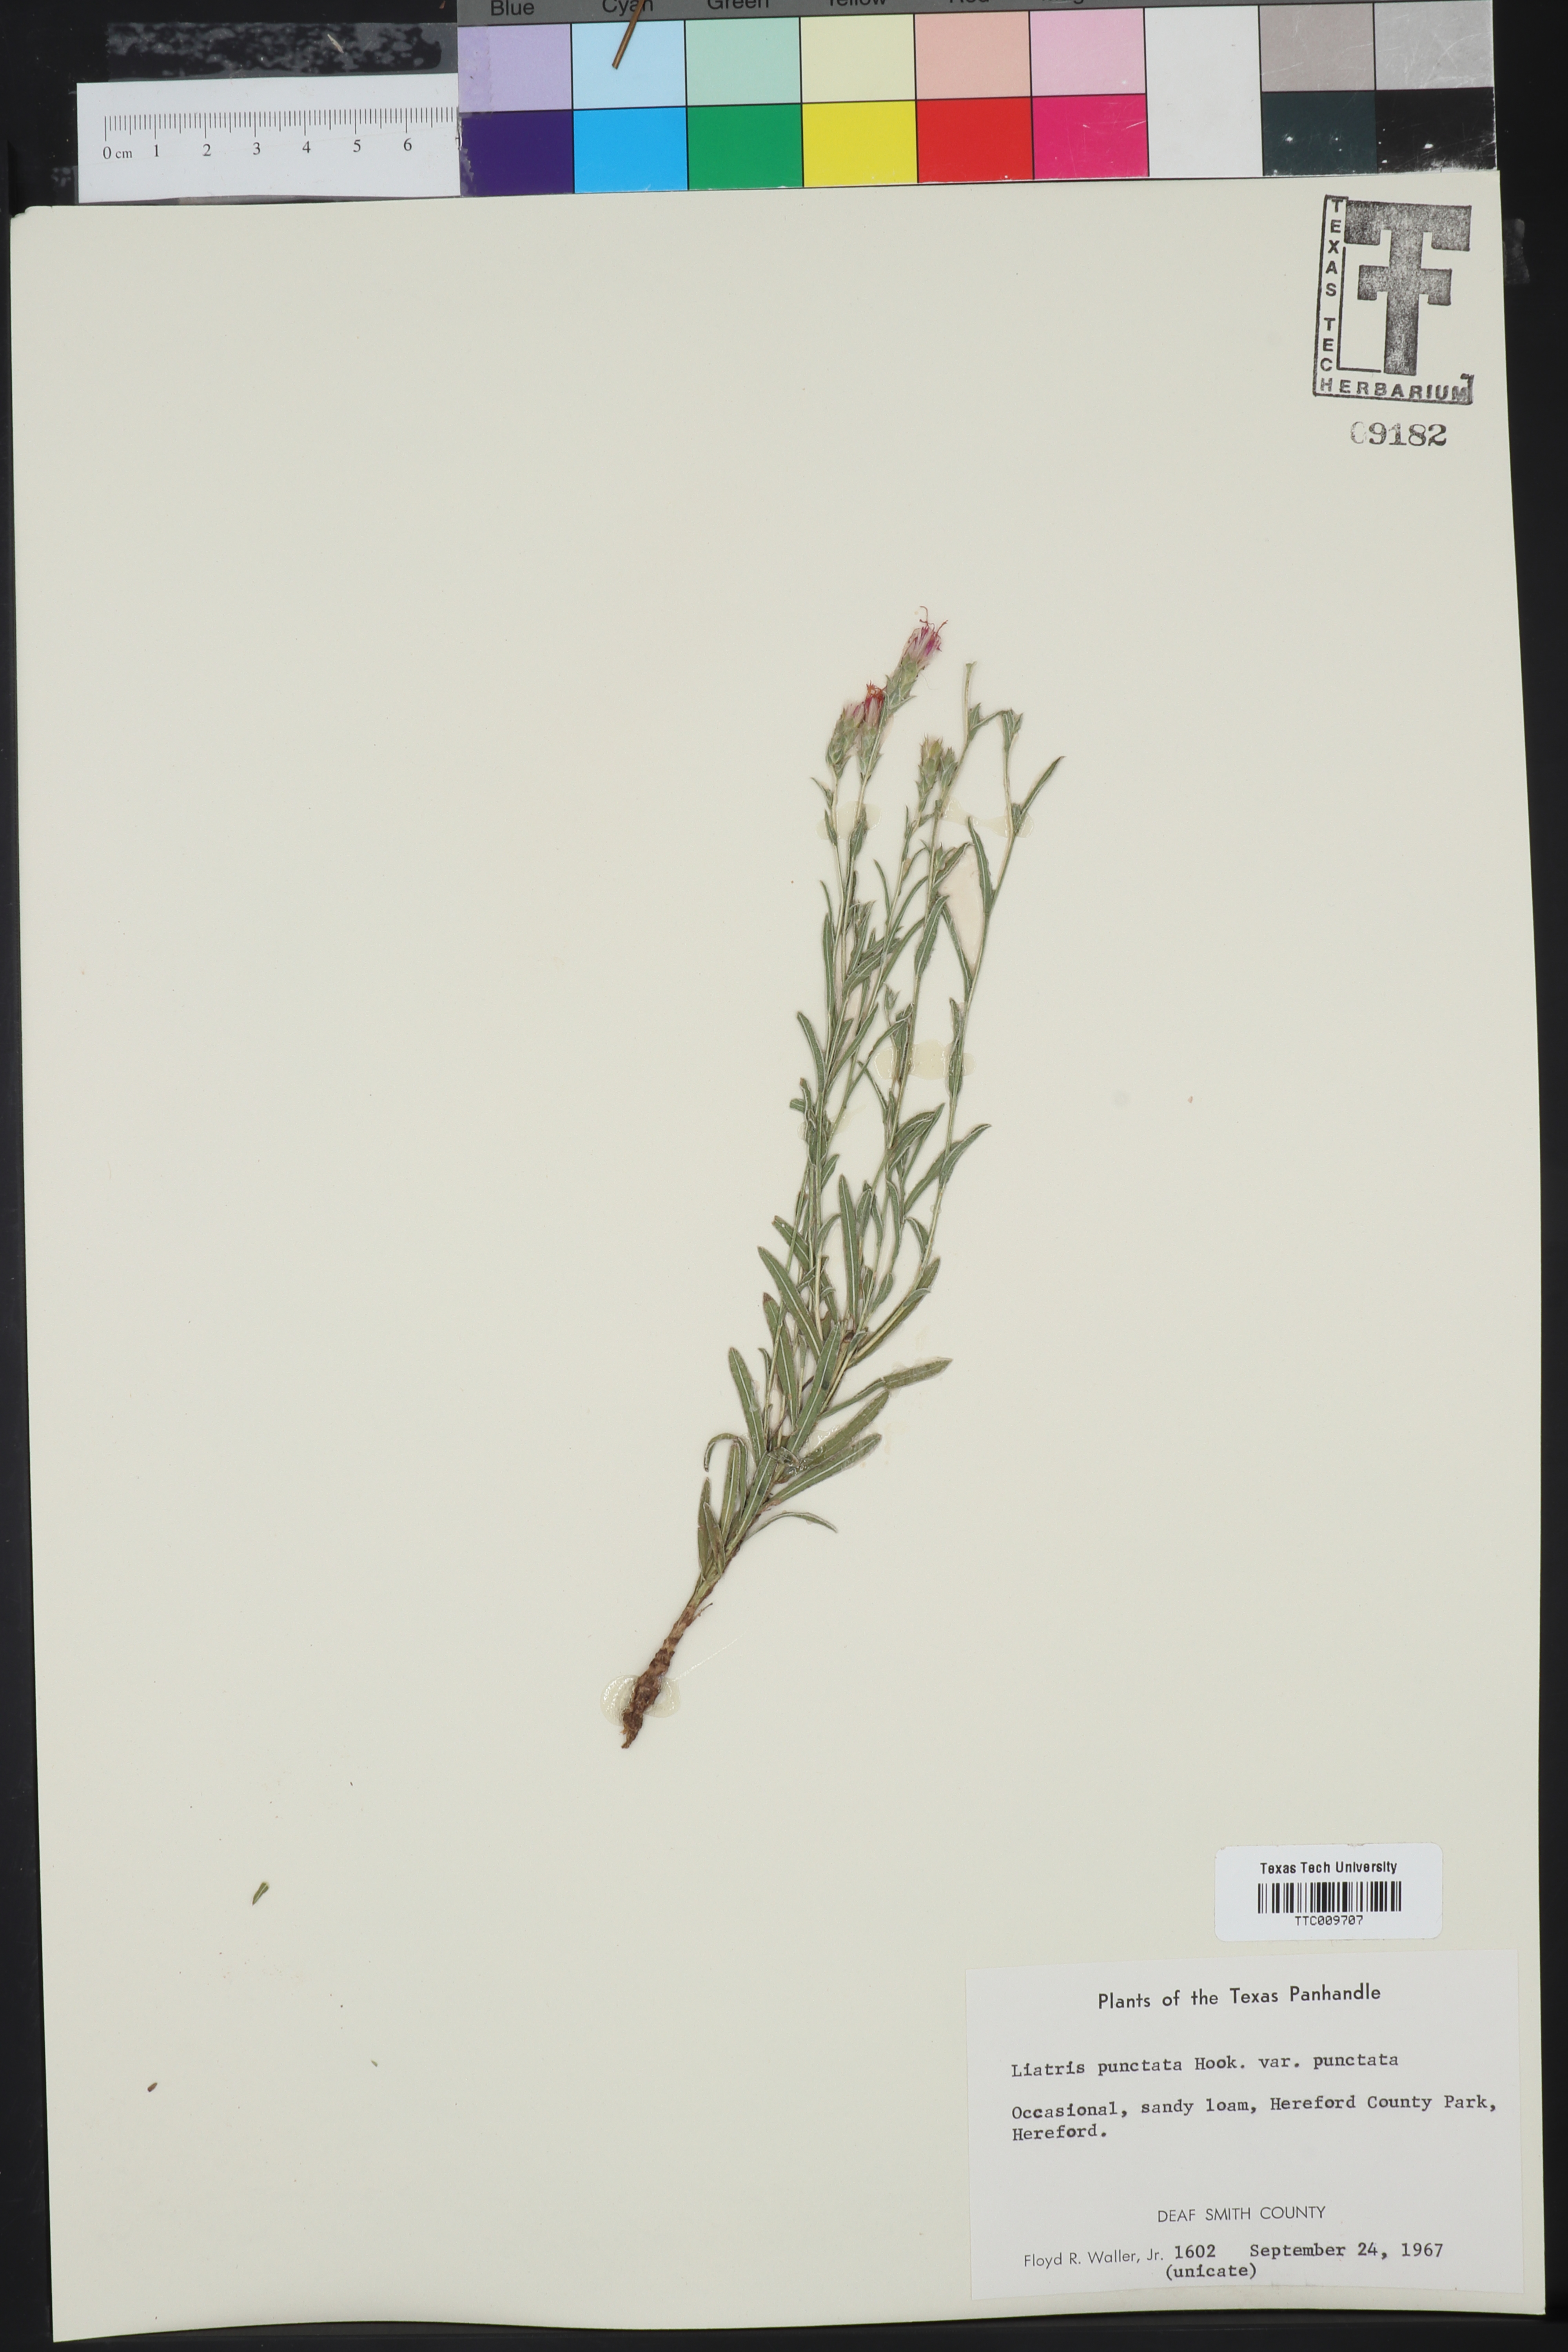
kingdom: Plantae
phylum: Tracheophyta
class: Magnoliopsida
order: Asterales
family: Asteraceae
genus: Liatris
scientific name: Liatris punctata
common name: Dotted gayfeather
